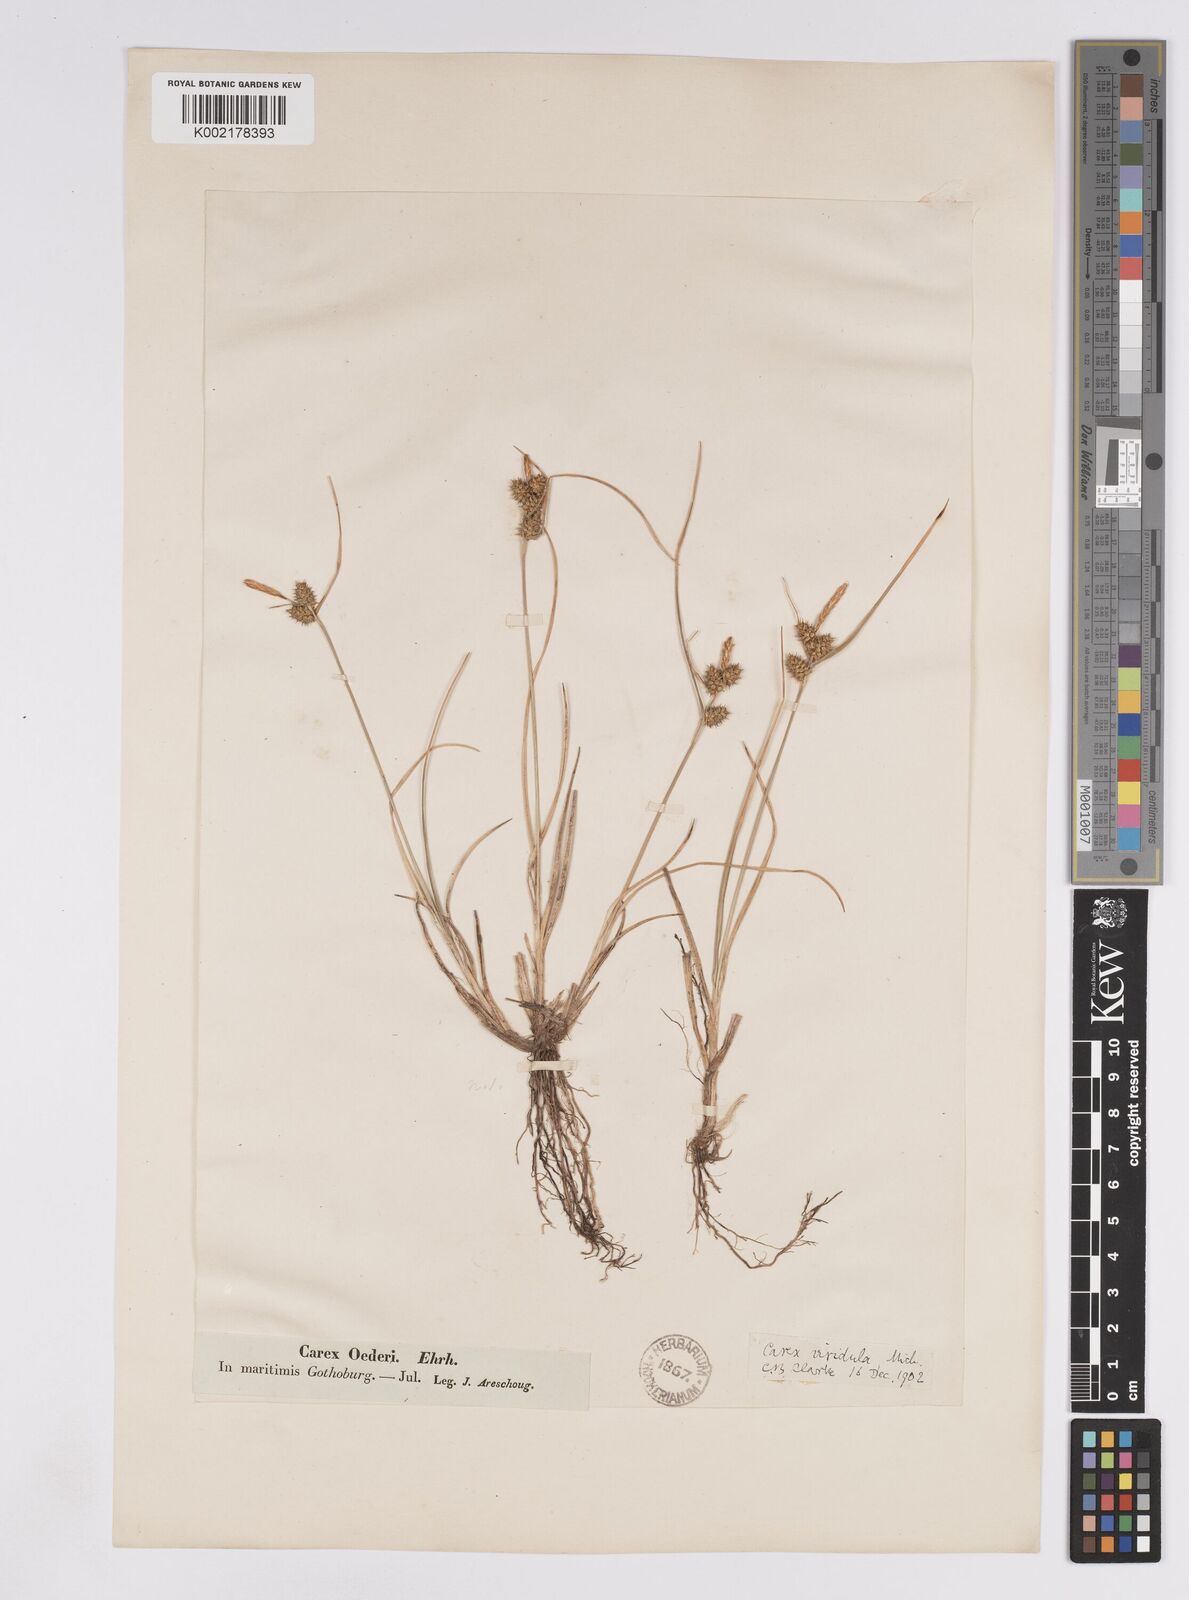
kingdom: Plantae
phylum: Tracheophyta
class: Liliopsida
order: Poales
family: Cyperaceae
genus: Carex
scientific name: Carex demissa
